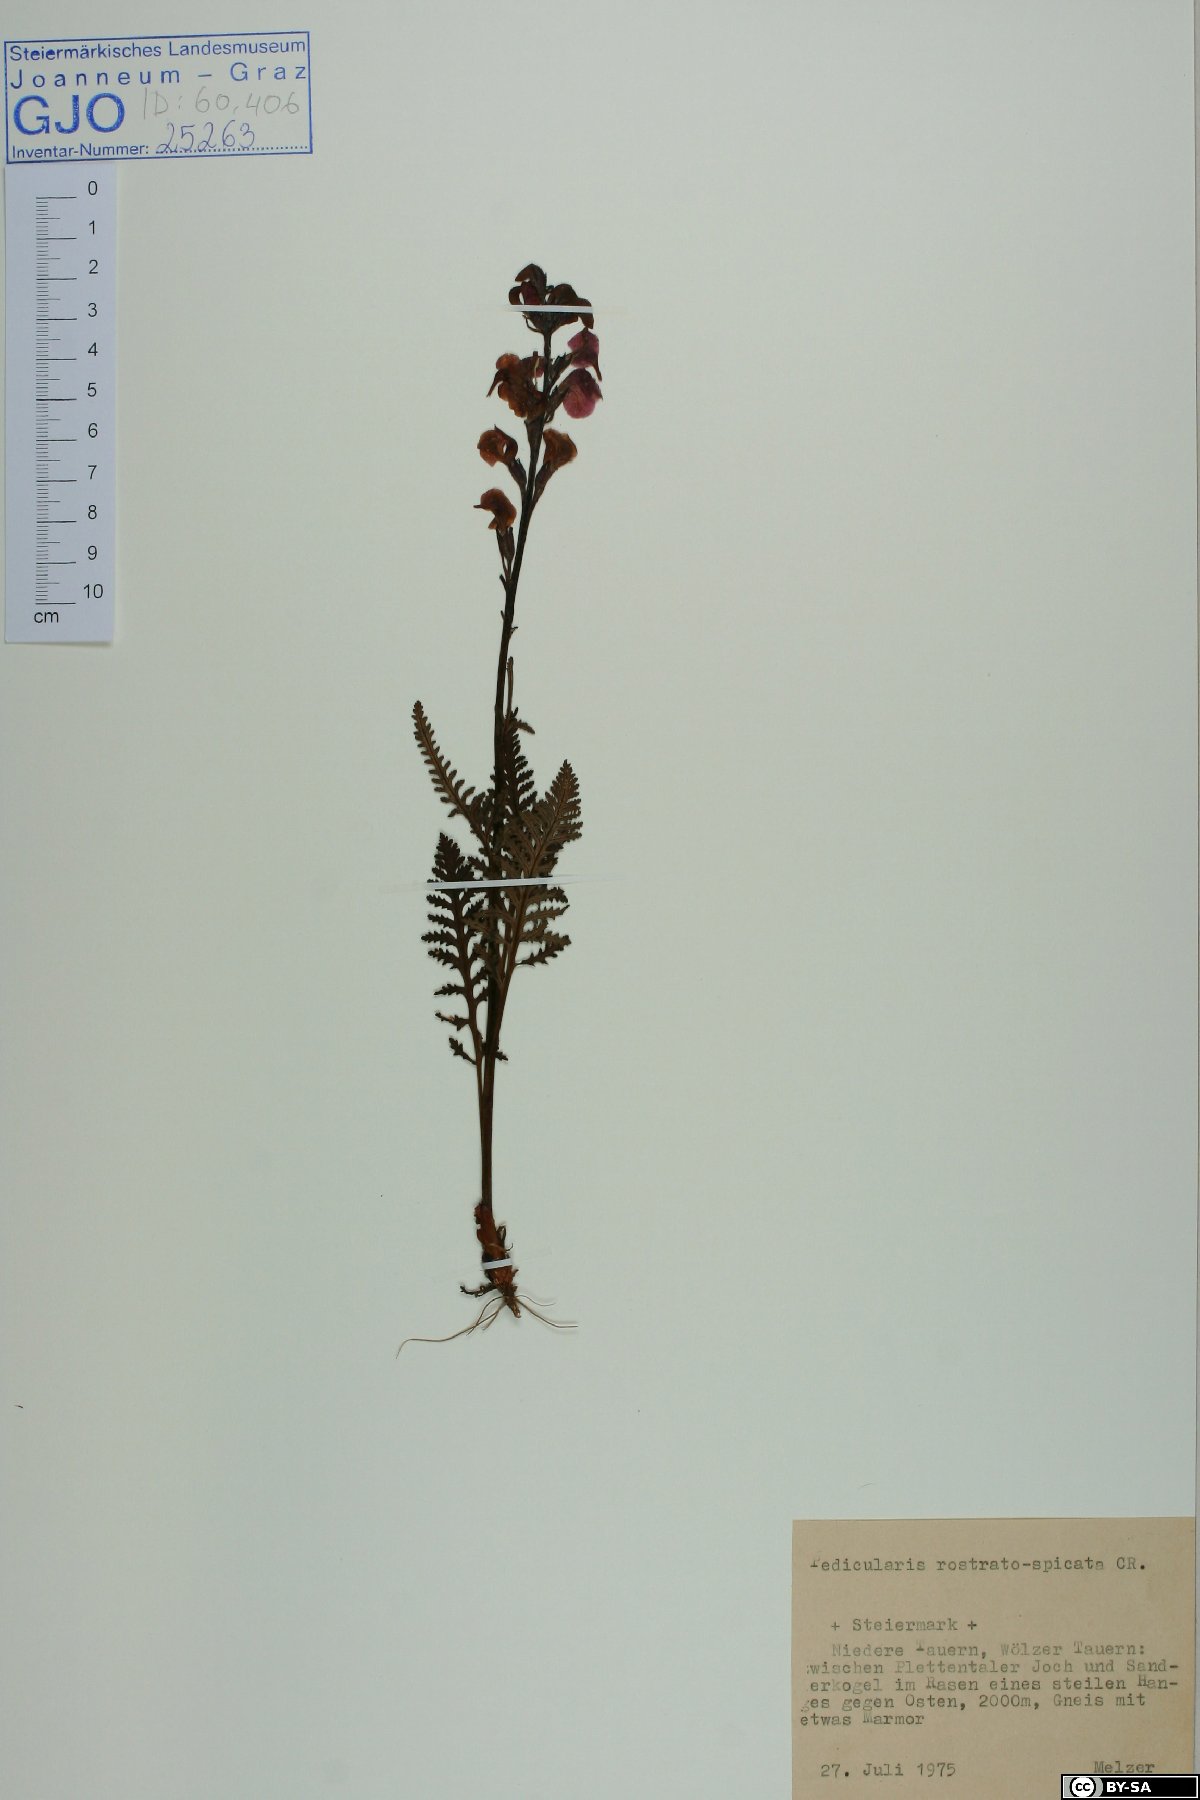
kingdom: Plantae
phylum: Tracheophyta
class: Magnoliopsida
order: Lamiales
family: Orobanchaceae
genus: Pedicularis
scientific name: Pedicularis rostratospicata
